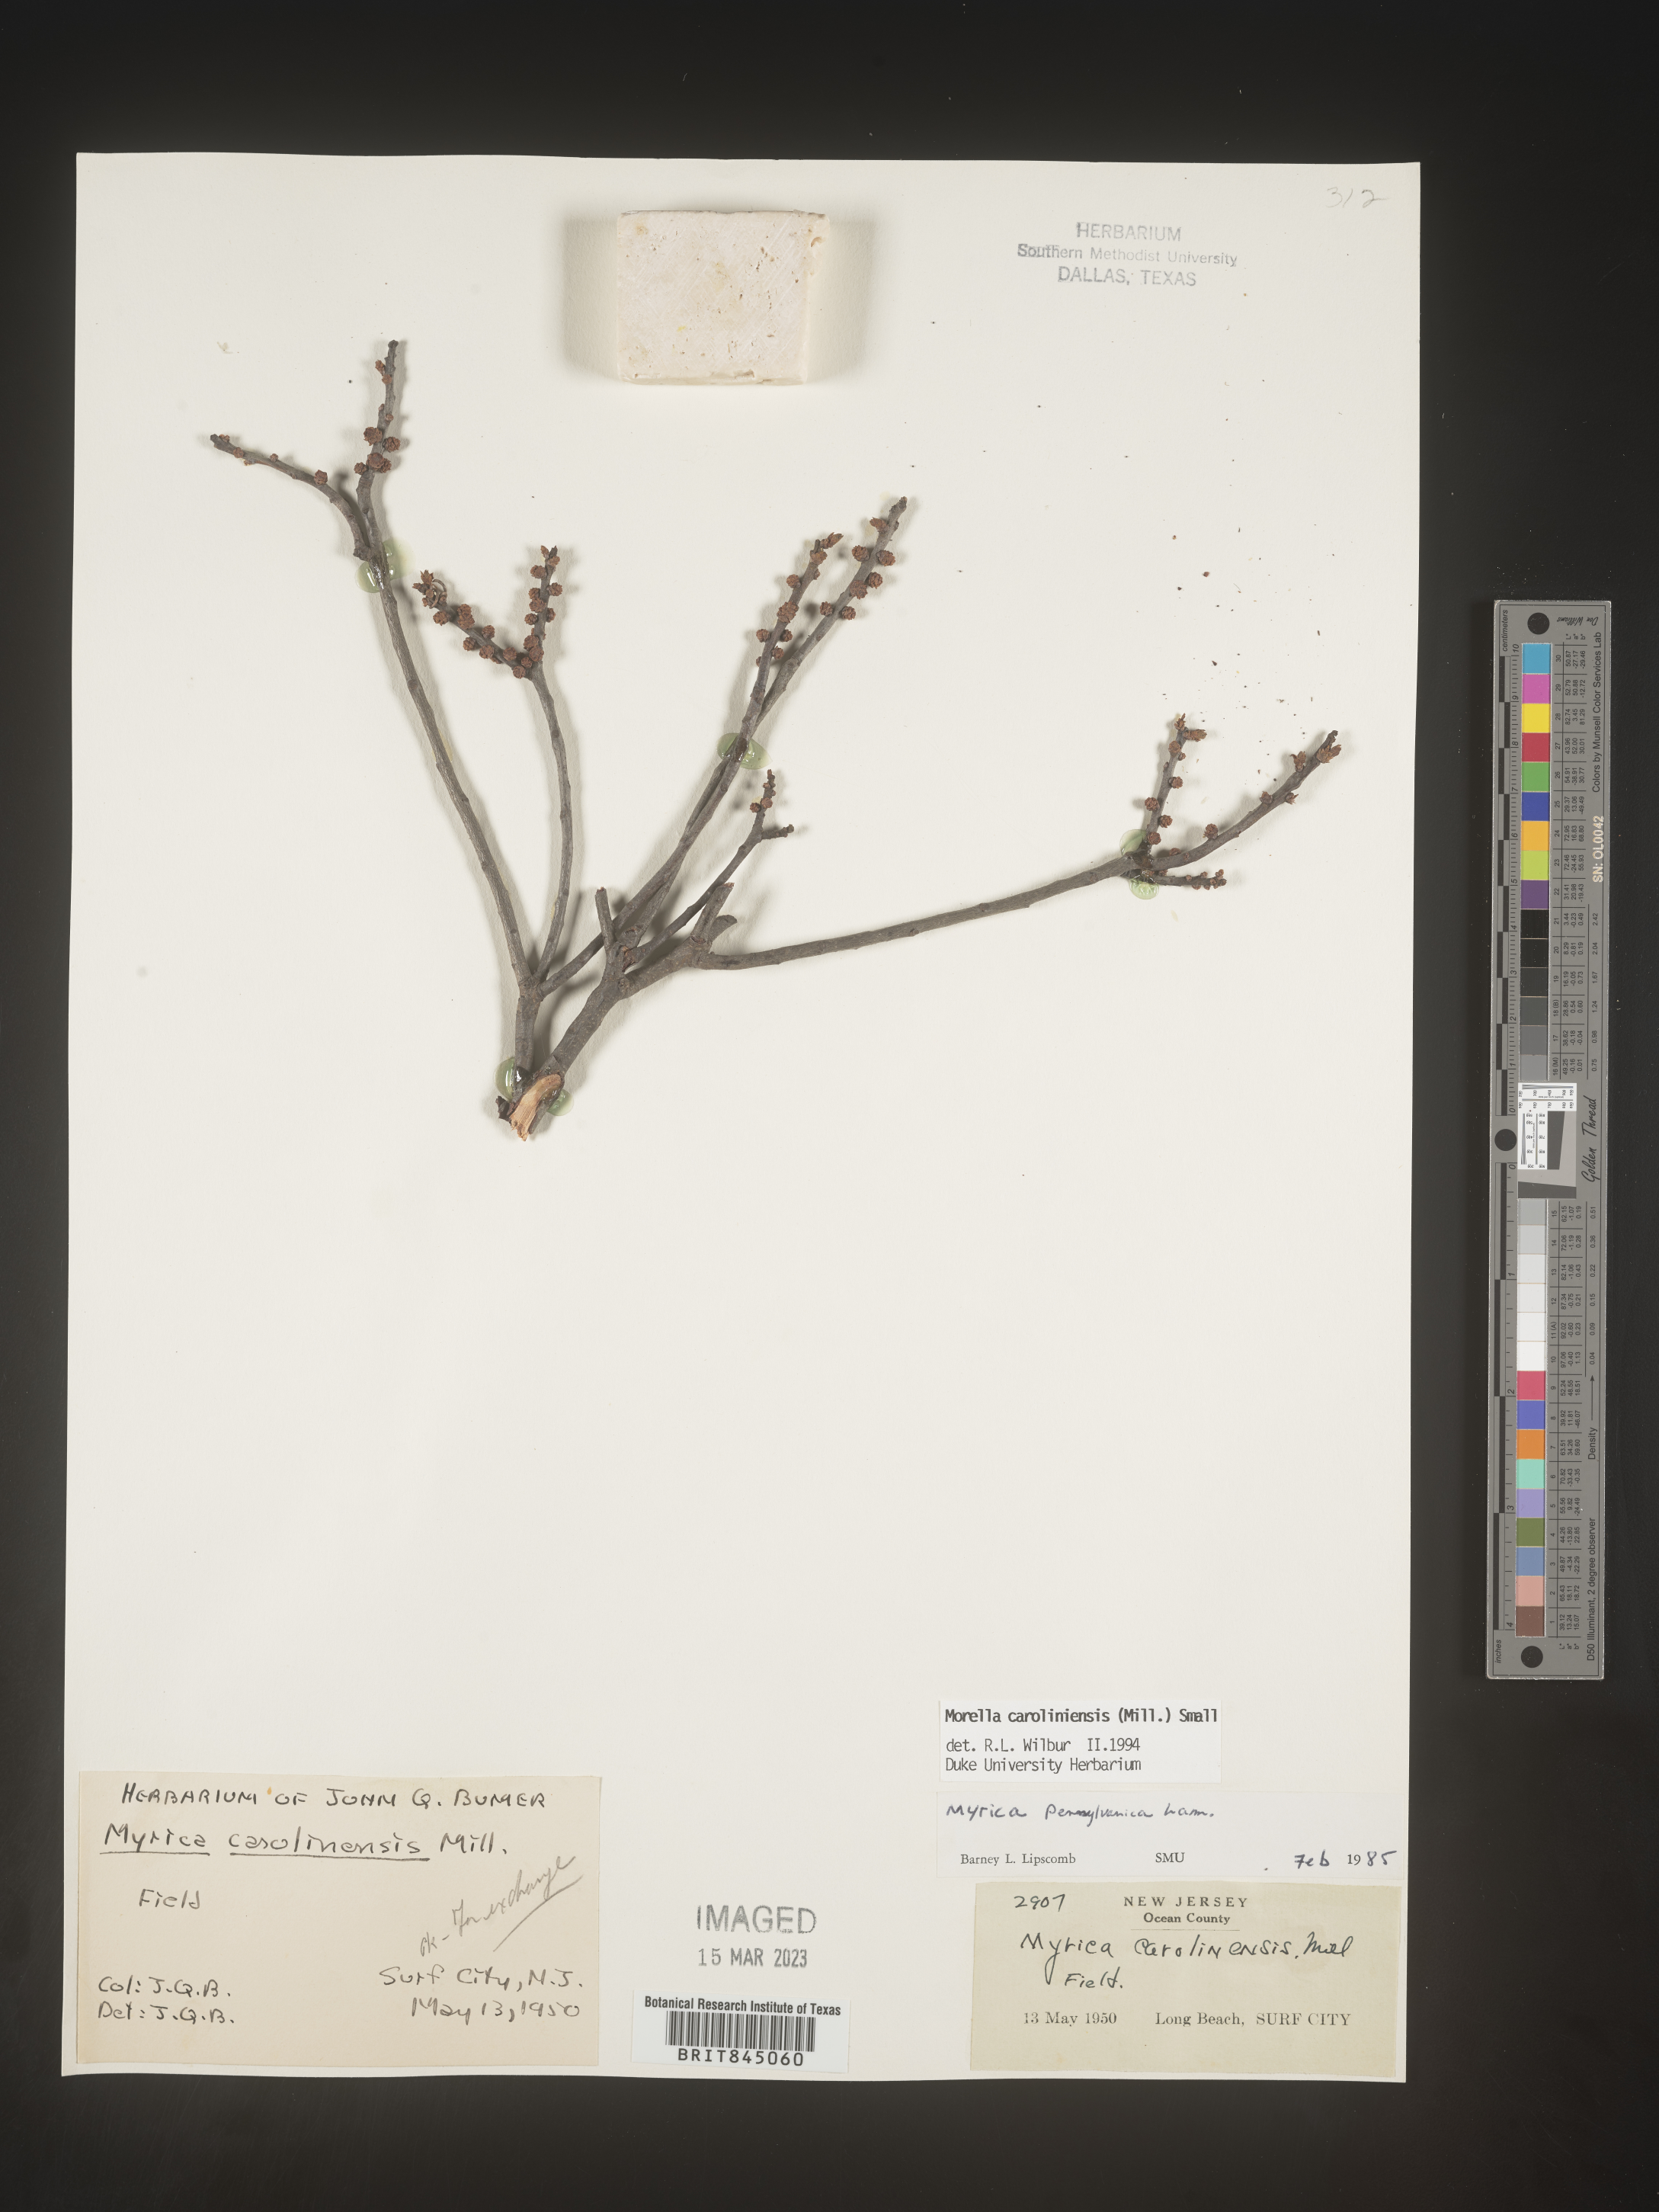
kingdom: Plantae
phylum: Tracheophyta
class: Magnoliopsida
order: Fagales
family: Myricaceae
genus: Morella
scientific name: Morella caroliniensis
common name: Evergreen bayberry
